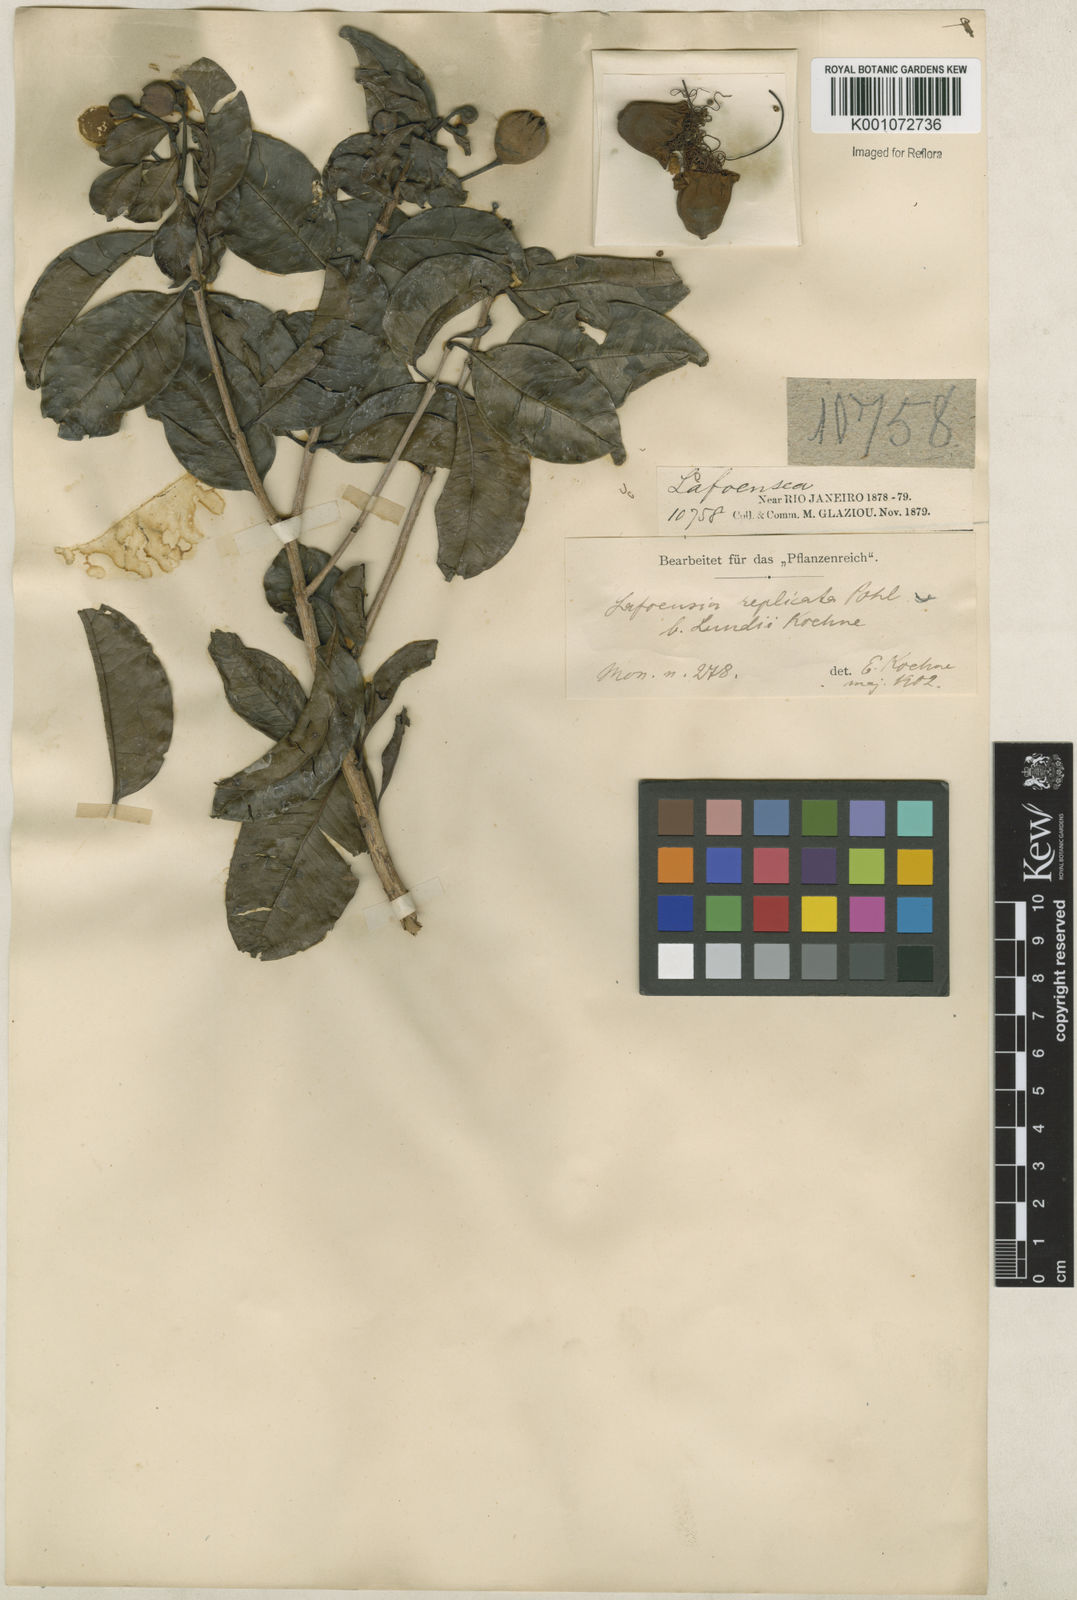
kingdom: Plantae
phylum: Tracheophyta
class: Magnoliopsida
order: Myrtales
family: Lythraceae
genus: Lafoensia
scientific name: Lafoensia vandelliana
